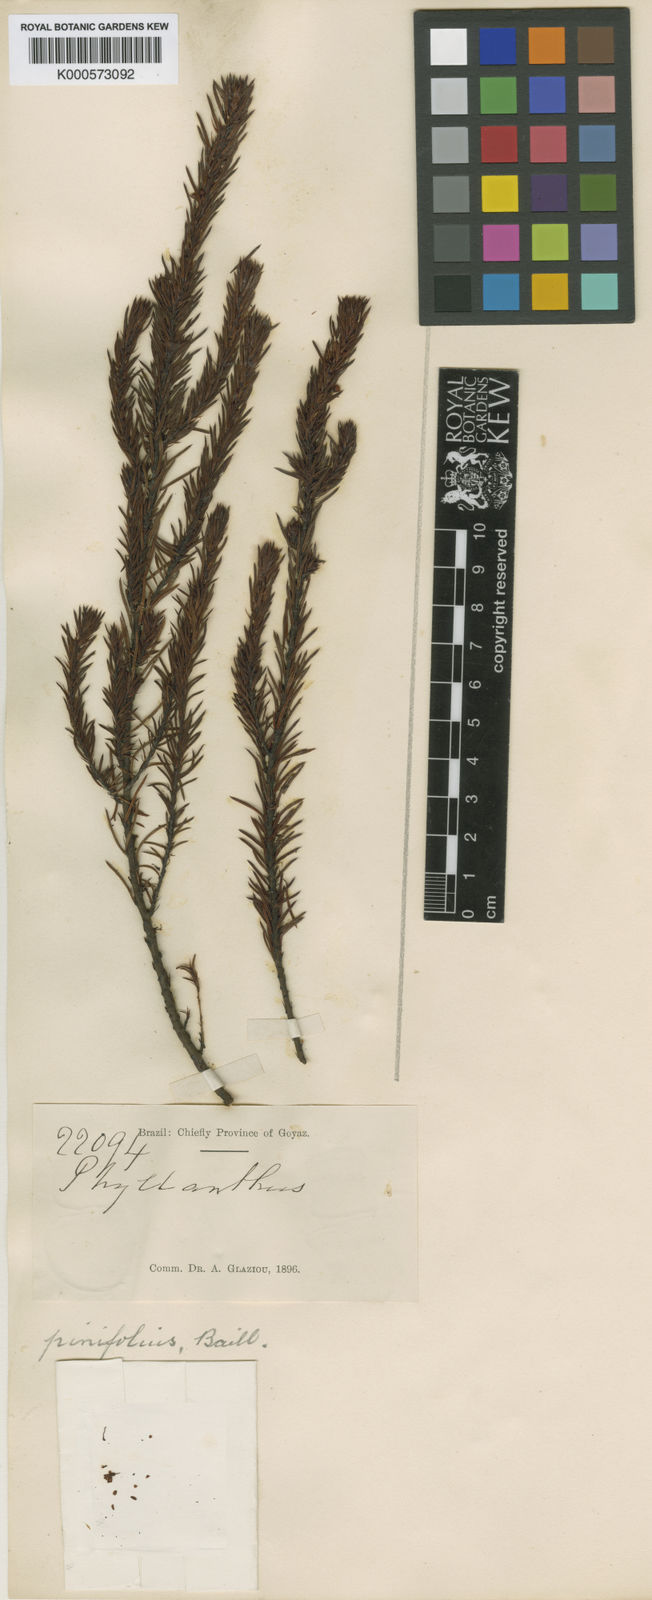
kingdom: Plantae
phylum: Tracheophyta
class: Magnoliopsida
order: Malpighiales
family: Phyllanthaceae
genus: Phyllanthus
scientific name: Phyllanthus pinifolius
